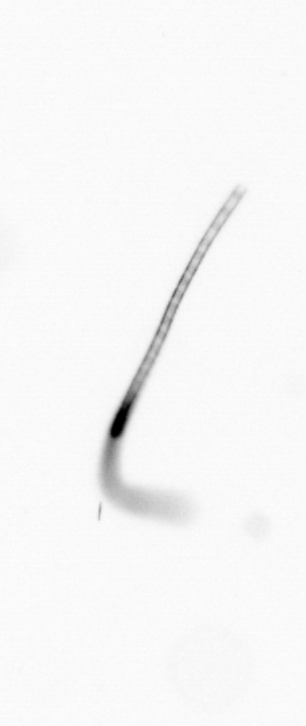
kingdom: Chromista
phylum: Ochrophyta
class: Bacillariophyceae
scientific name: Bacillariophyceae
